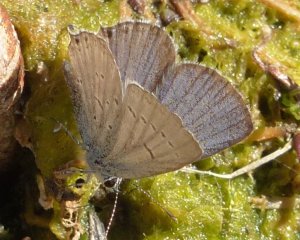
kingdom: Animalia
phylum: Arthropoda
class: Insecta
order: Lepidoptera
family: Lycaenidae
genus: Elkalyce
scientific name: Elkalyce amyntula
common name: Western Tailed-Blue
